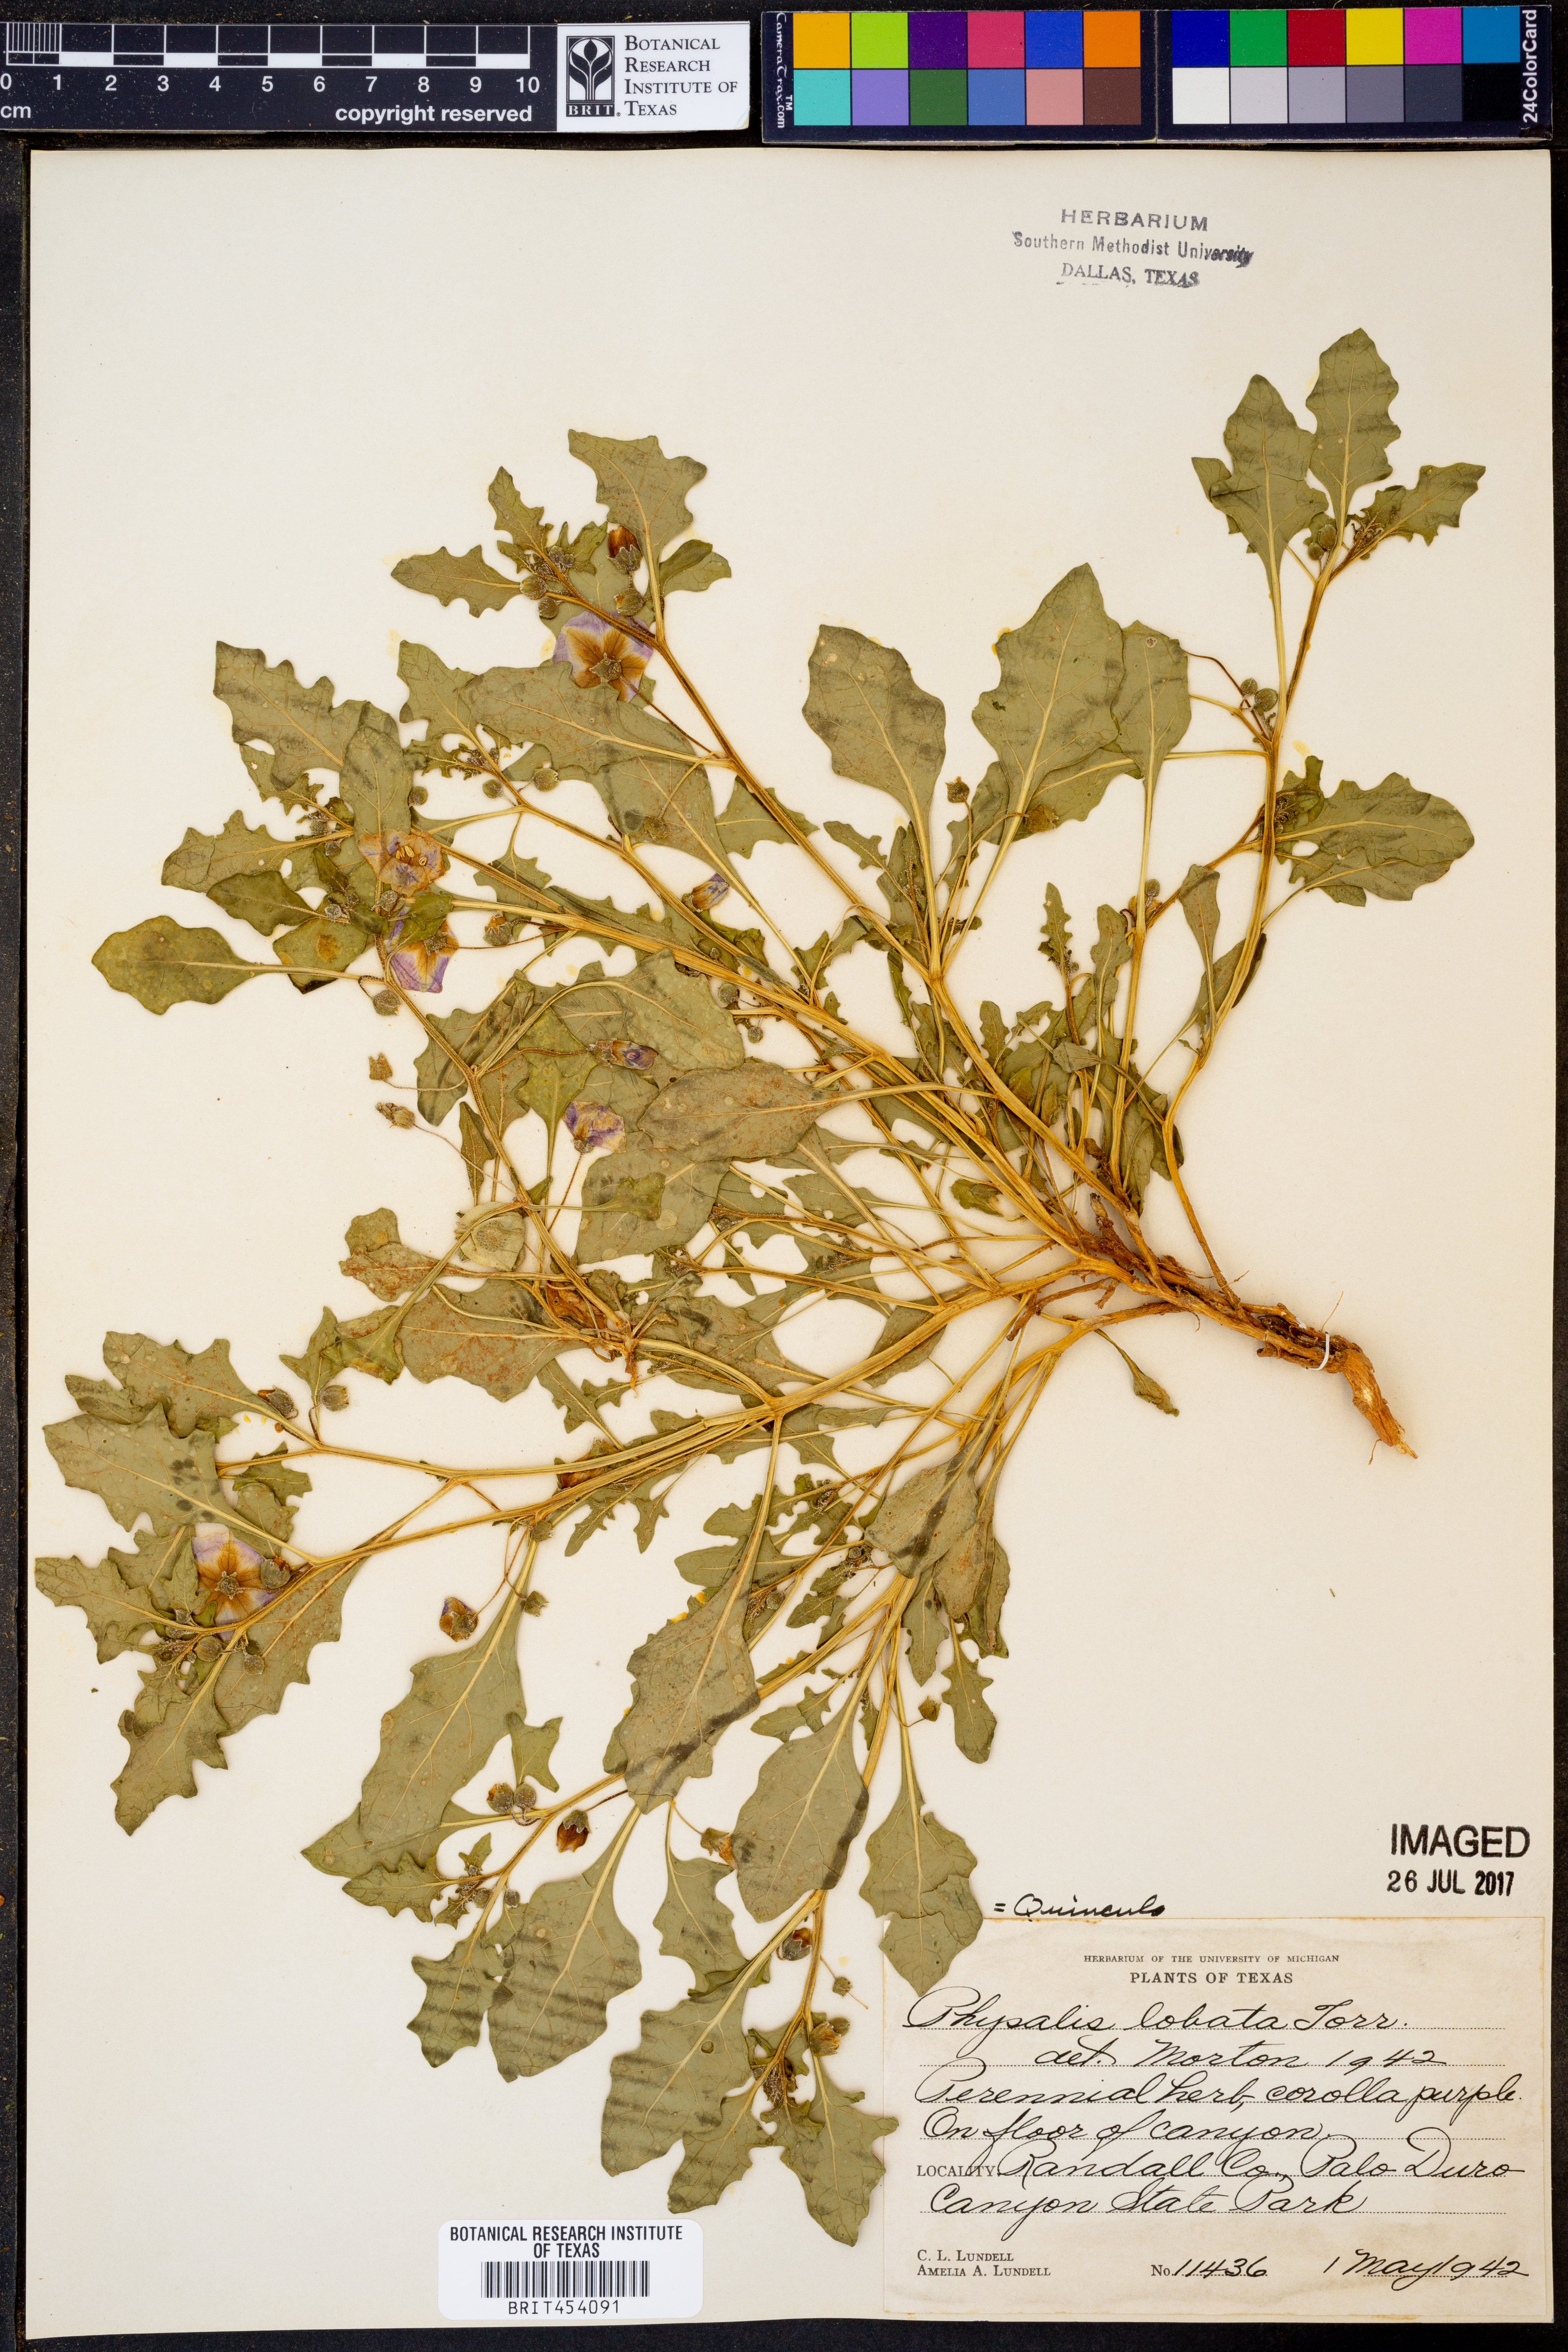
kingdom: Plantae
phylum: Tracheophyta
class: Magnoliopsida
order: Solanales
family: Solanaceae
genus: Quincula
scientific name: Quincula lobata
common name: Purple-ground-cherry
